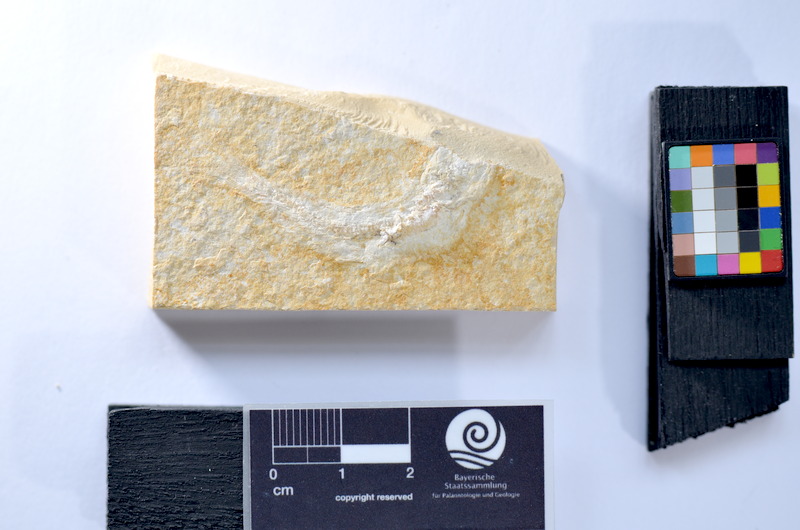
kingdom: Animalia
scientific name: Animalia
